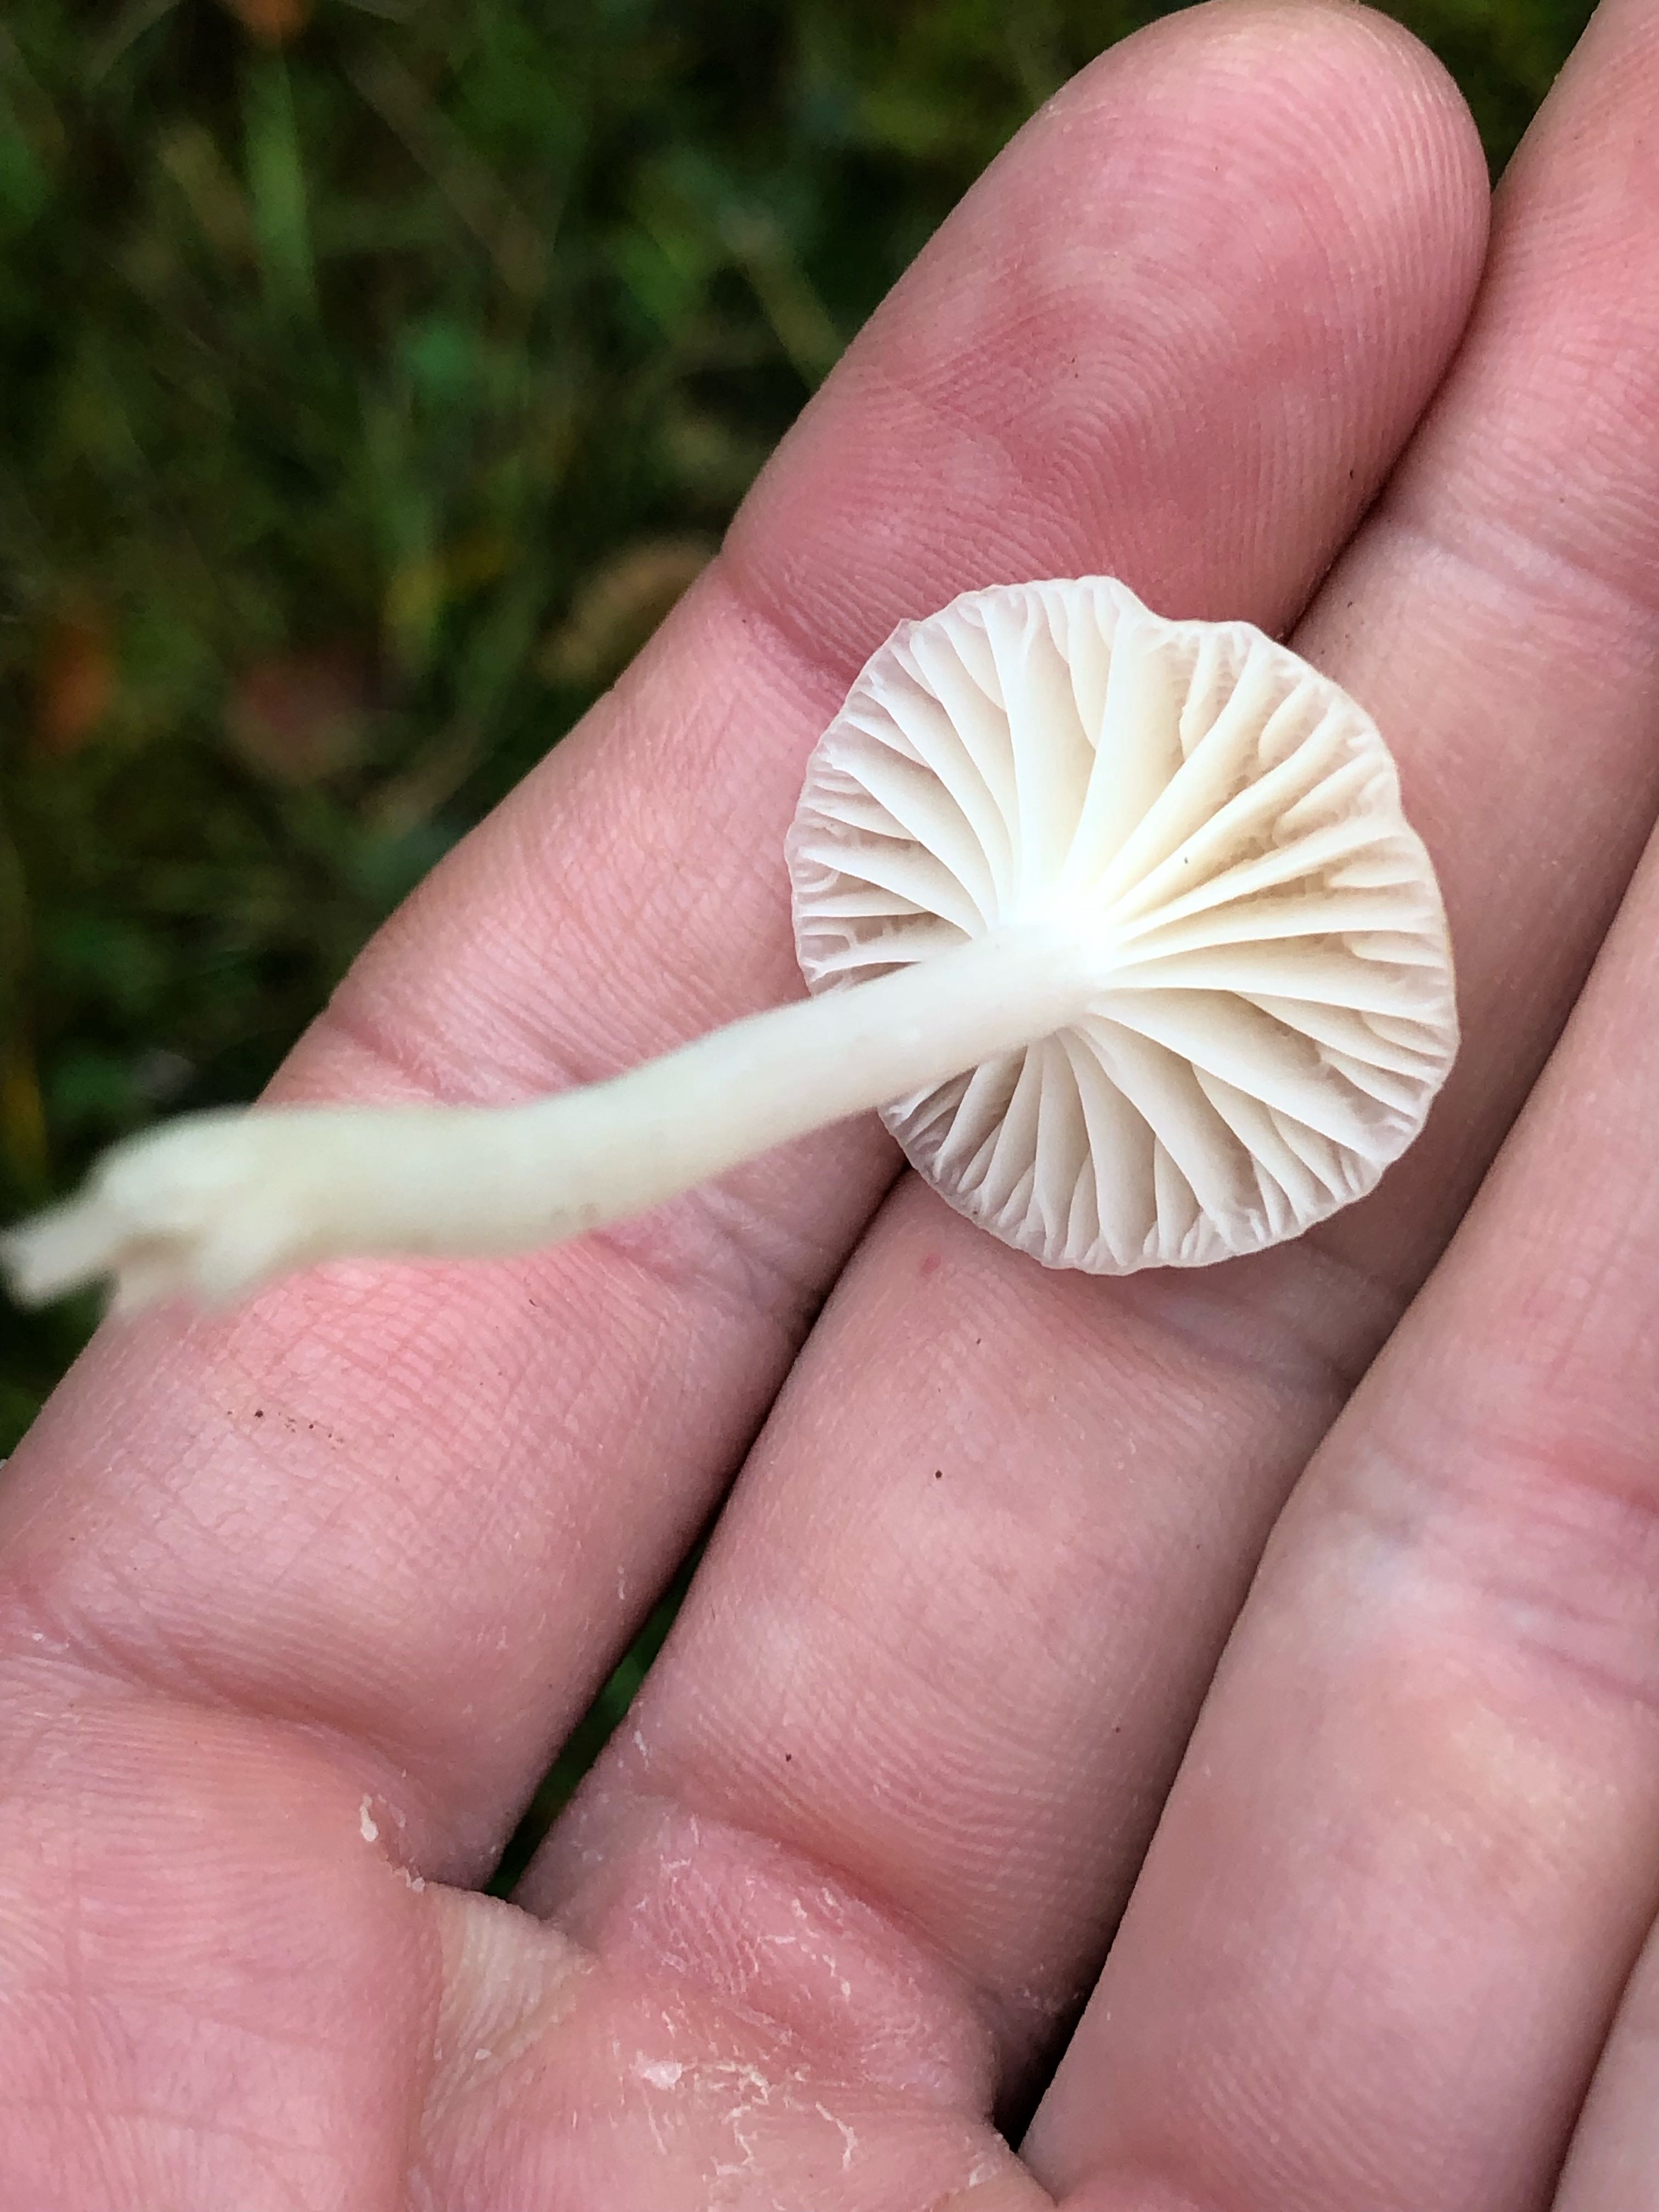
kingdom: Fungi
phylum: Basidiomycota
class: Agaricomycetes
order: Agaricales
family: Hygrophoraceae
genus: Cuphophyllus
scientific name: Cuphophyllus virgineus
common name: snehvid vokshat
